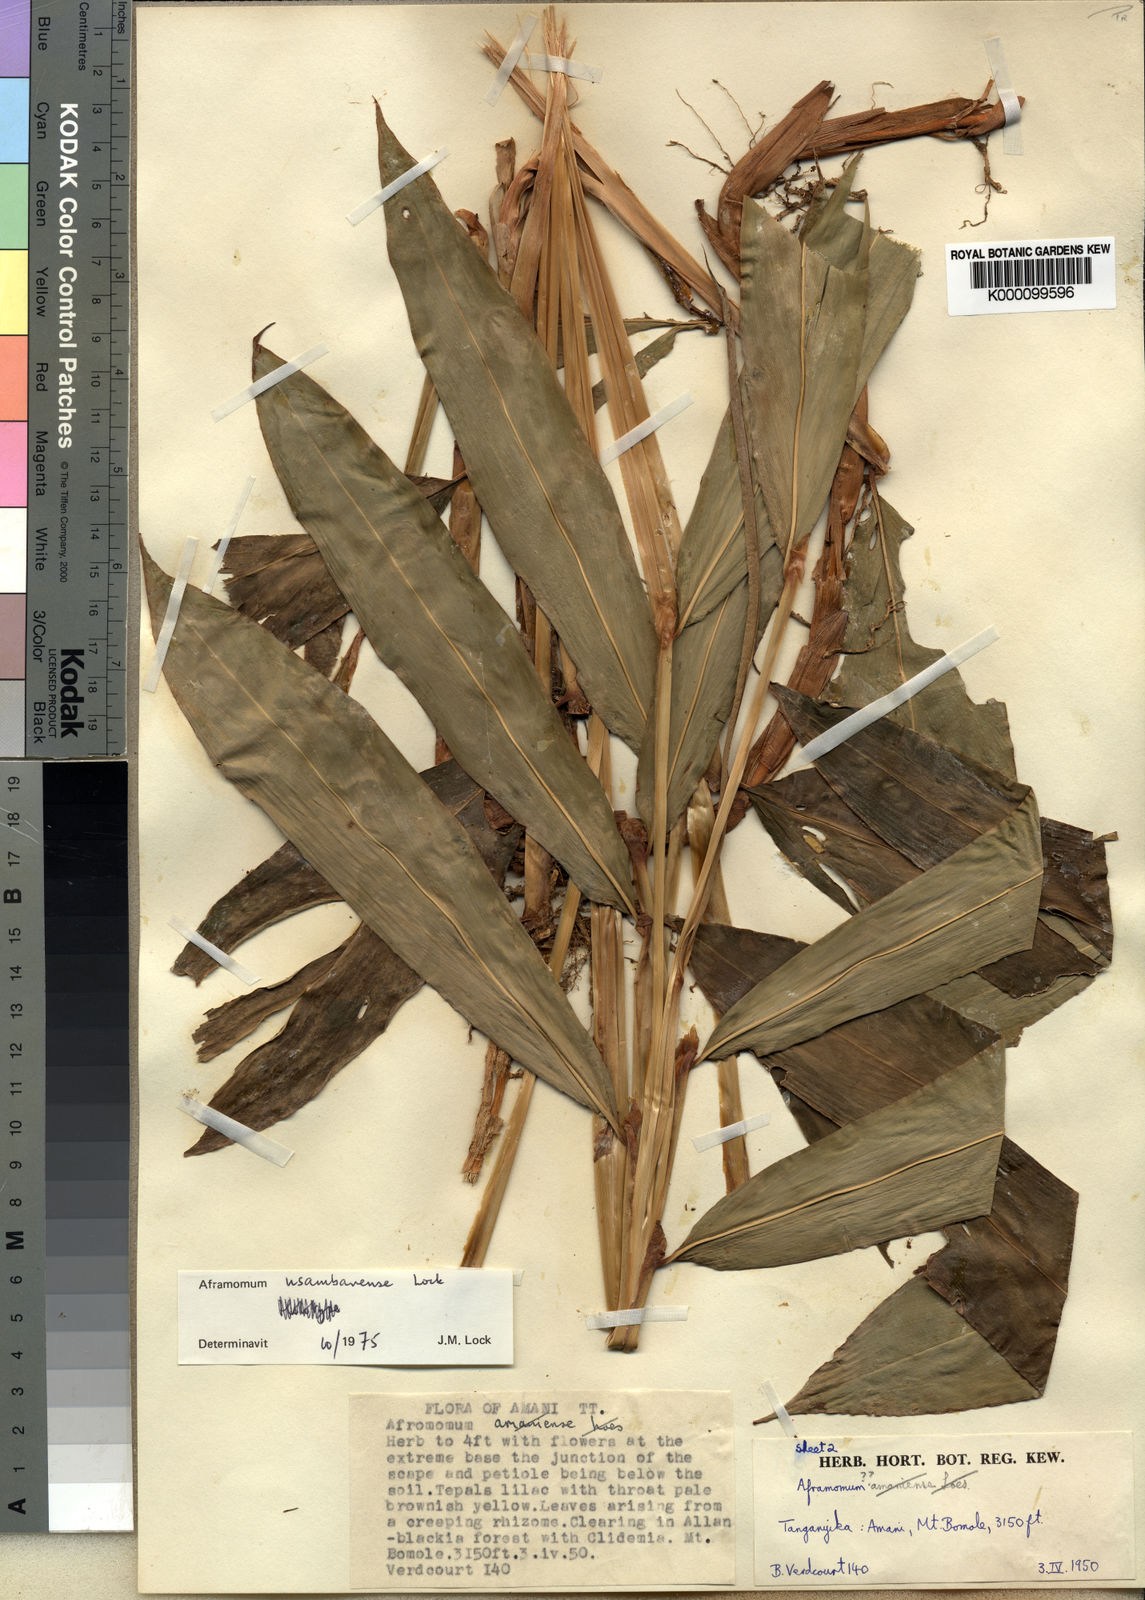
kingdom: Plantae
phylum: Tracheophyta
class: Liliopsida
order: Zingiberales
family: Zingiberaceae
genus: Aframomum
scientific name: Aframomum corrorima
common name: Ethiopian cardamom
